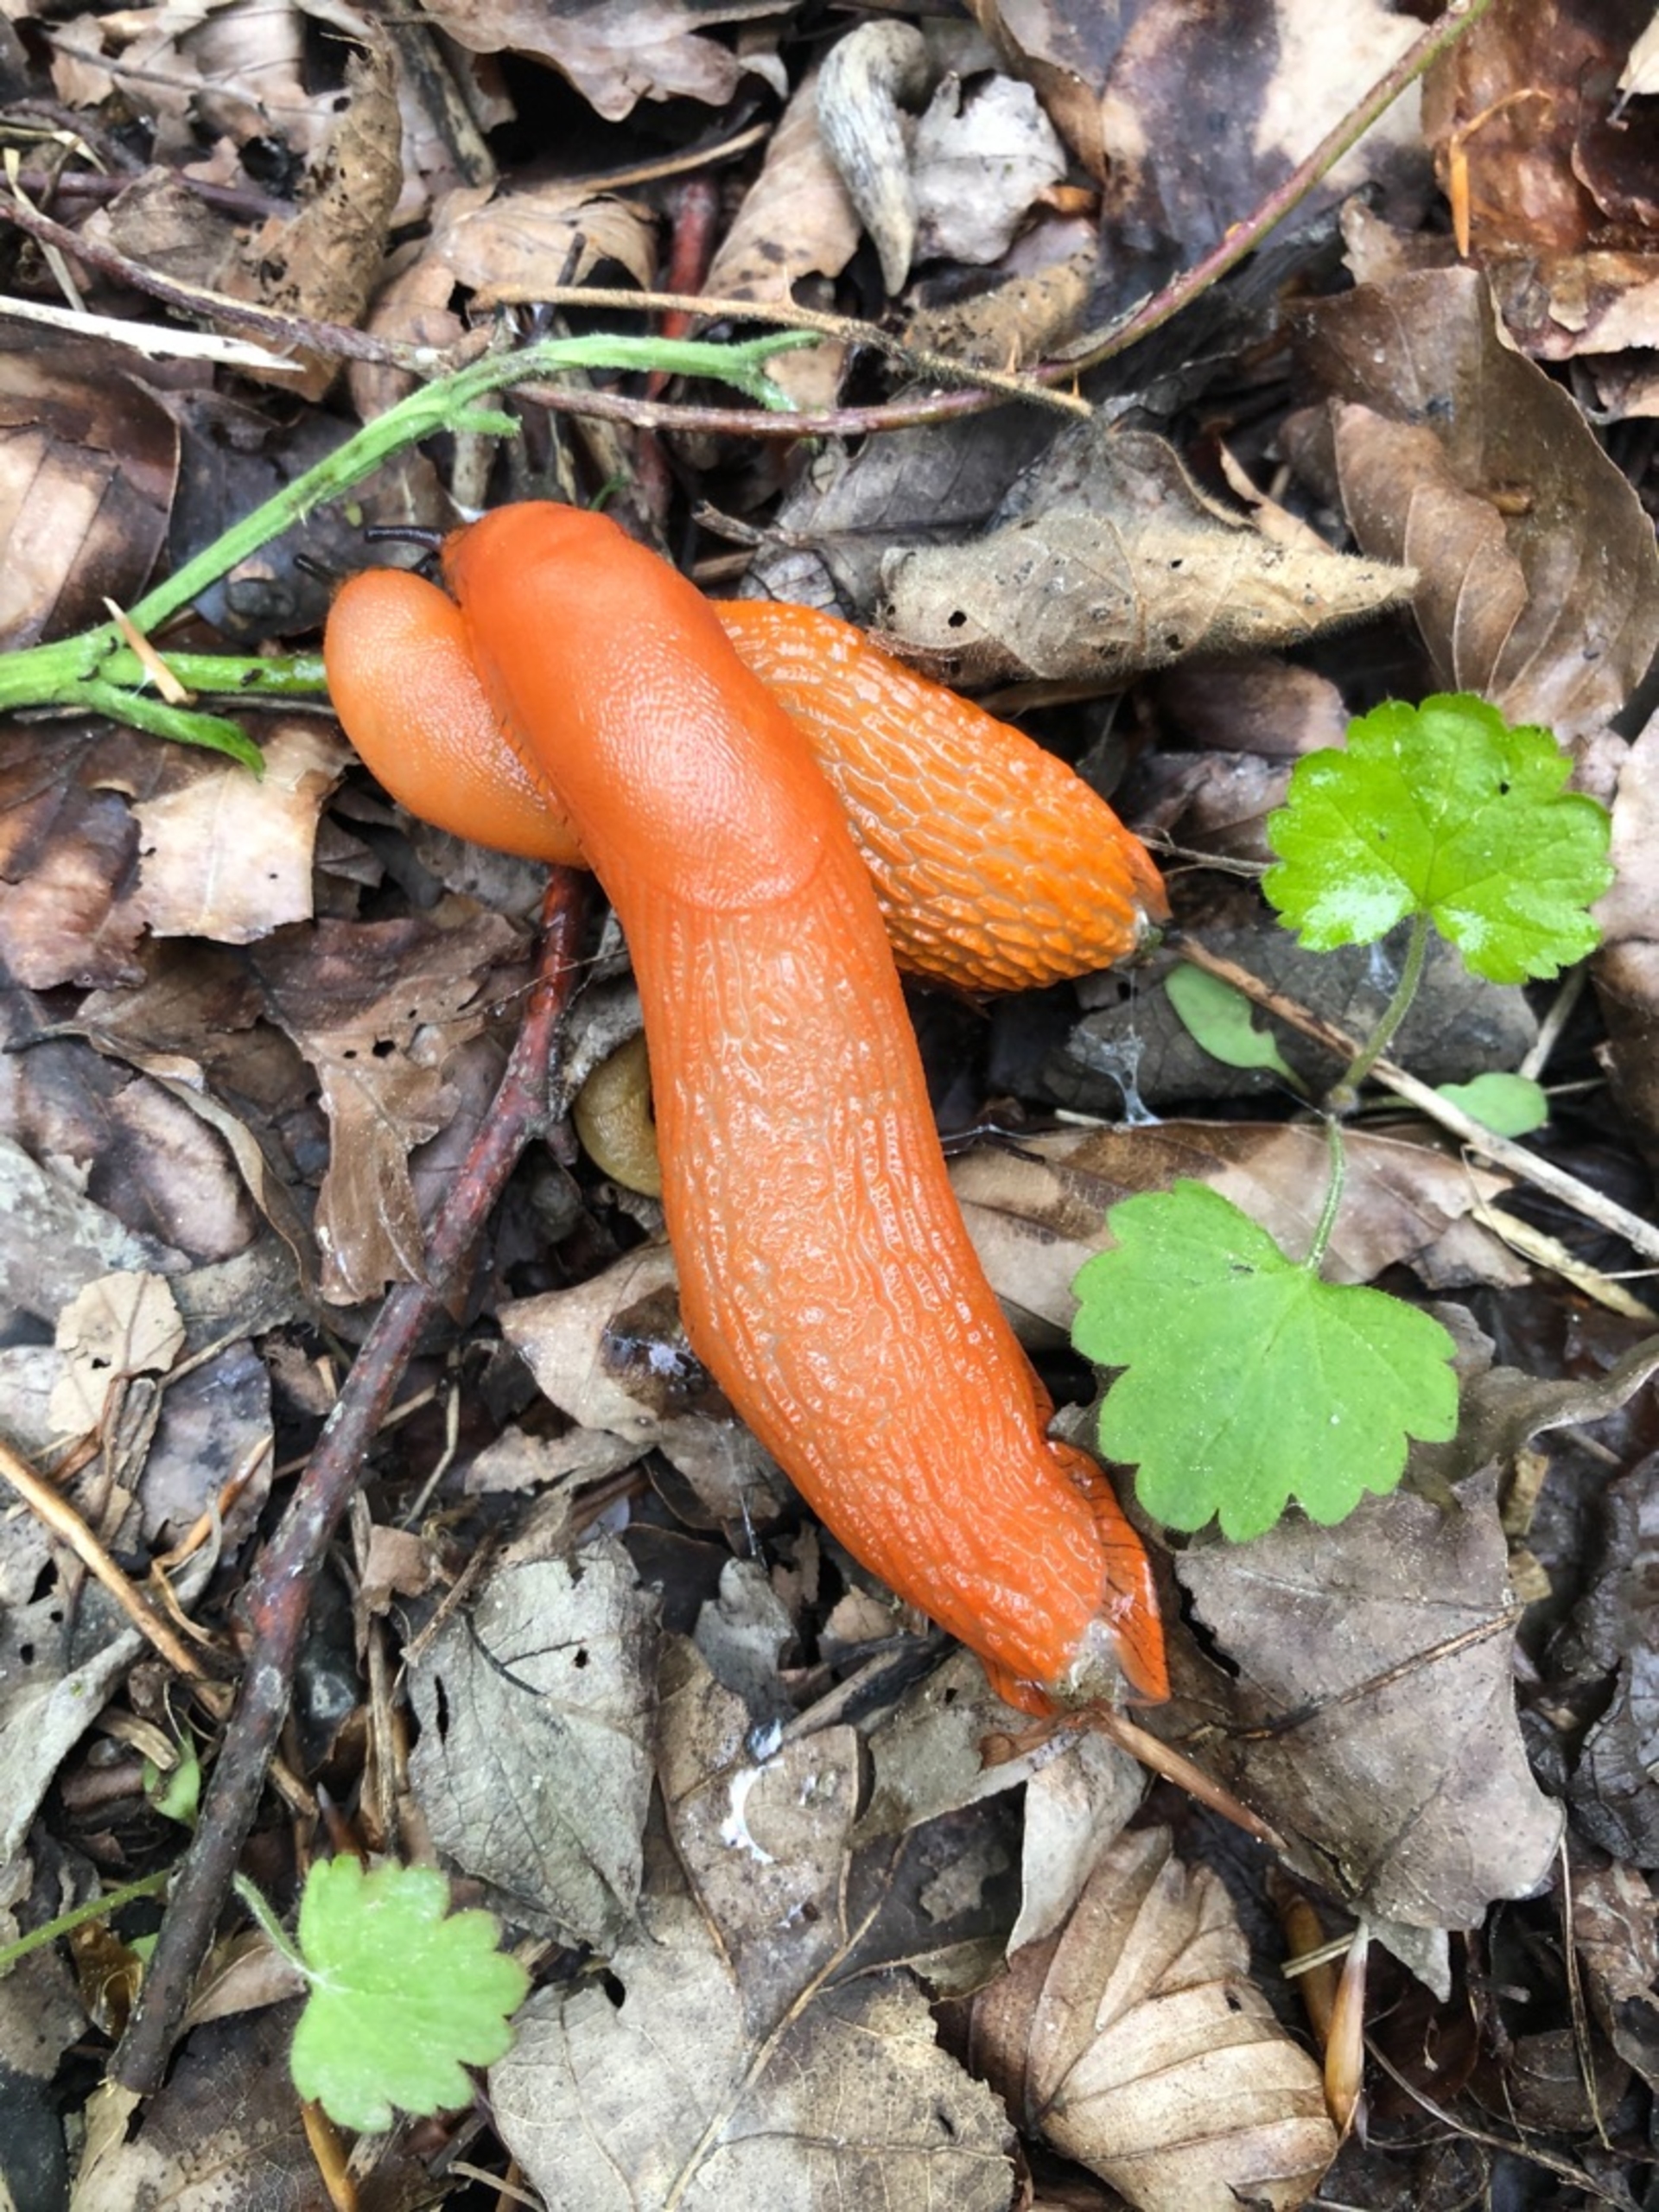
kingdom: Animalia
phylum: Mollusca
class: Gastropoda
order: Stylommatophora
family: Arionidae
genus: Arion
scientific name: Arion rufus
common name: Rød skovsnegl
